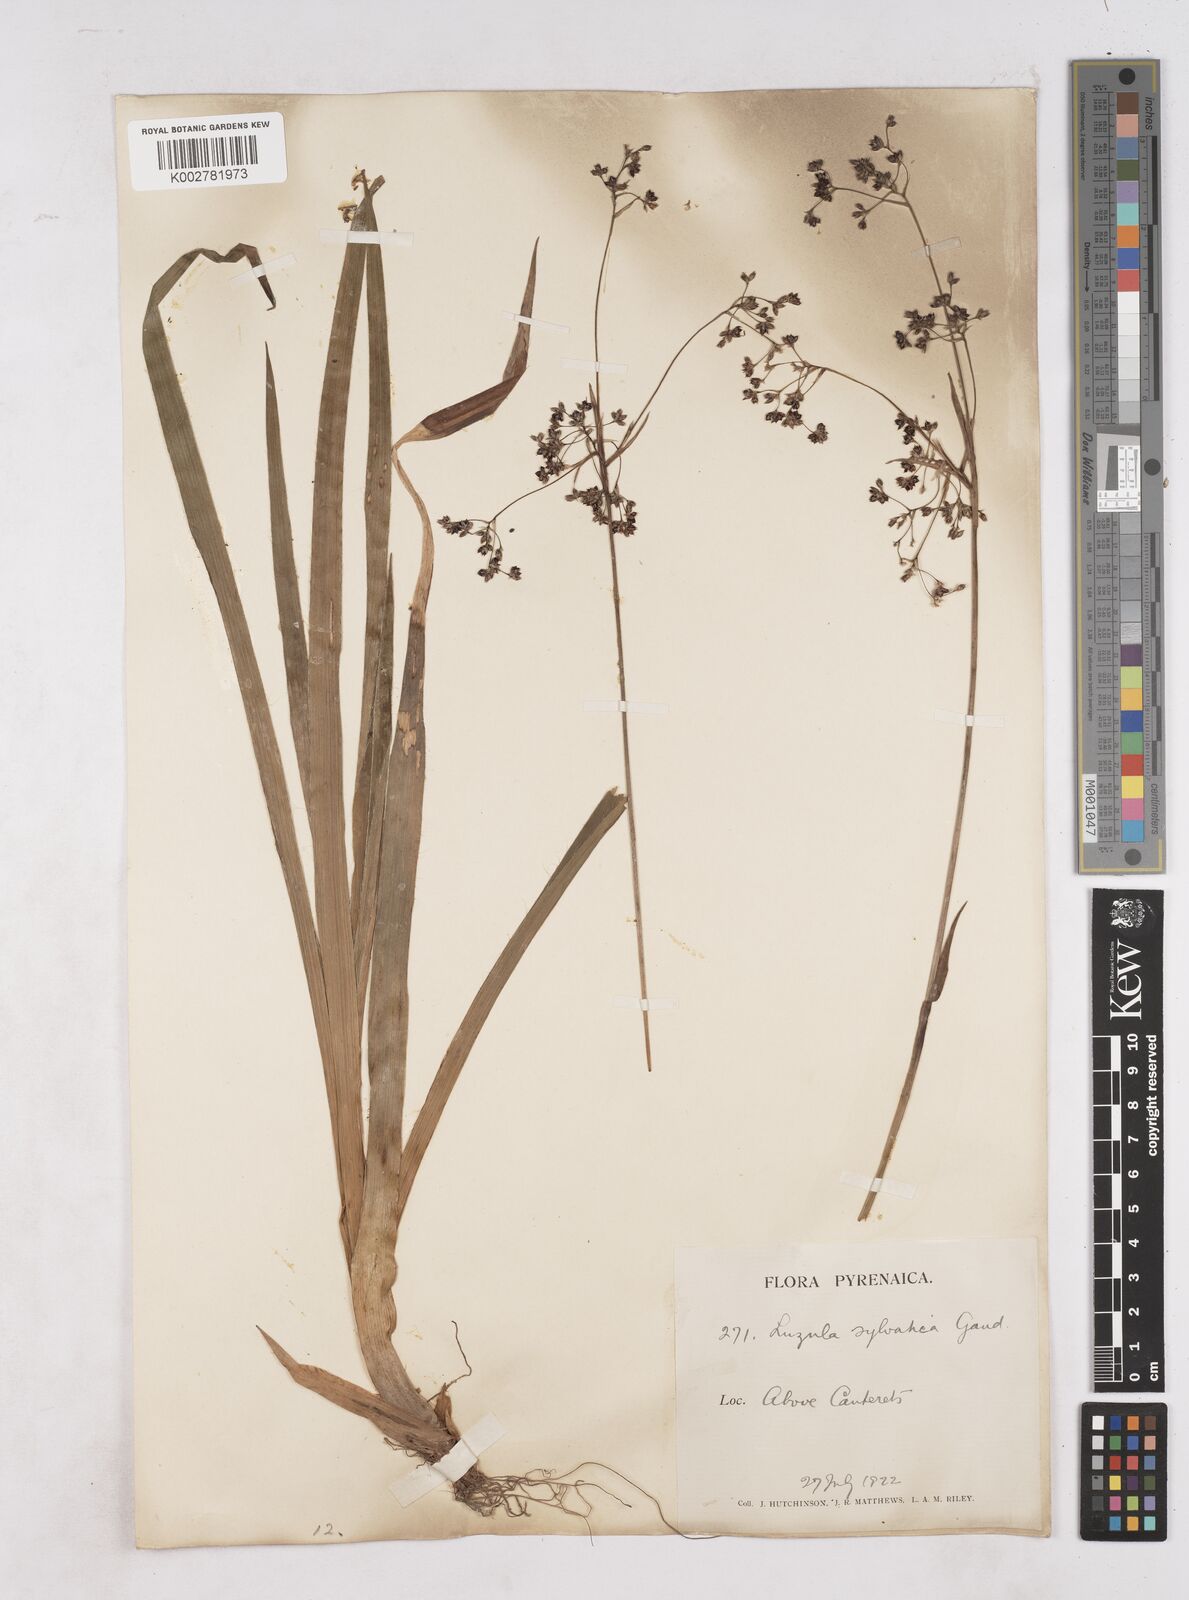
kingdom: Plantae
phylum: Tracheophyta
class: Liliopsida
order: Poales
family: Juncaceae
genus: Luzula
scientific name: Luzula sylvatica
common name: Great wood-rush
